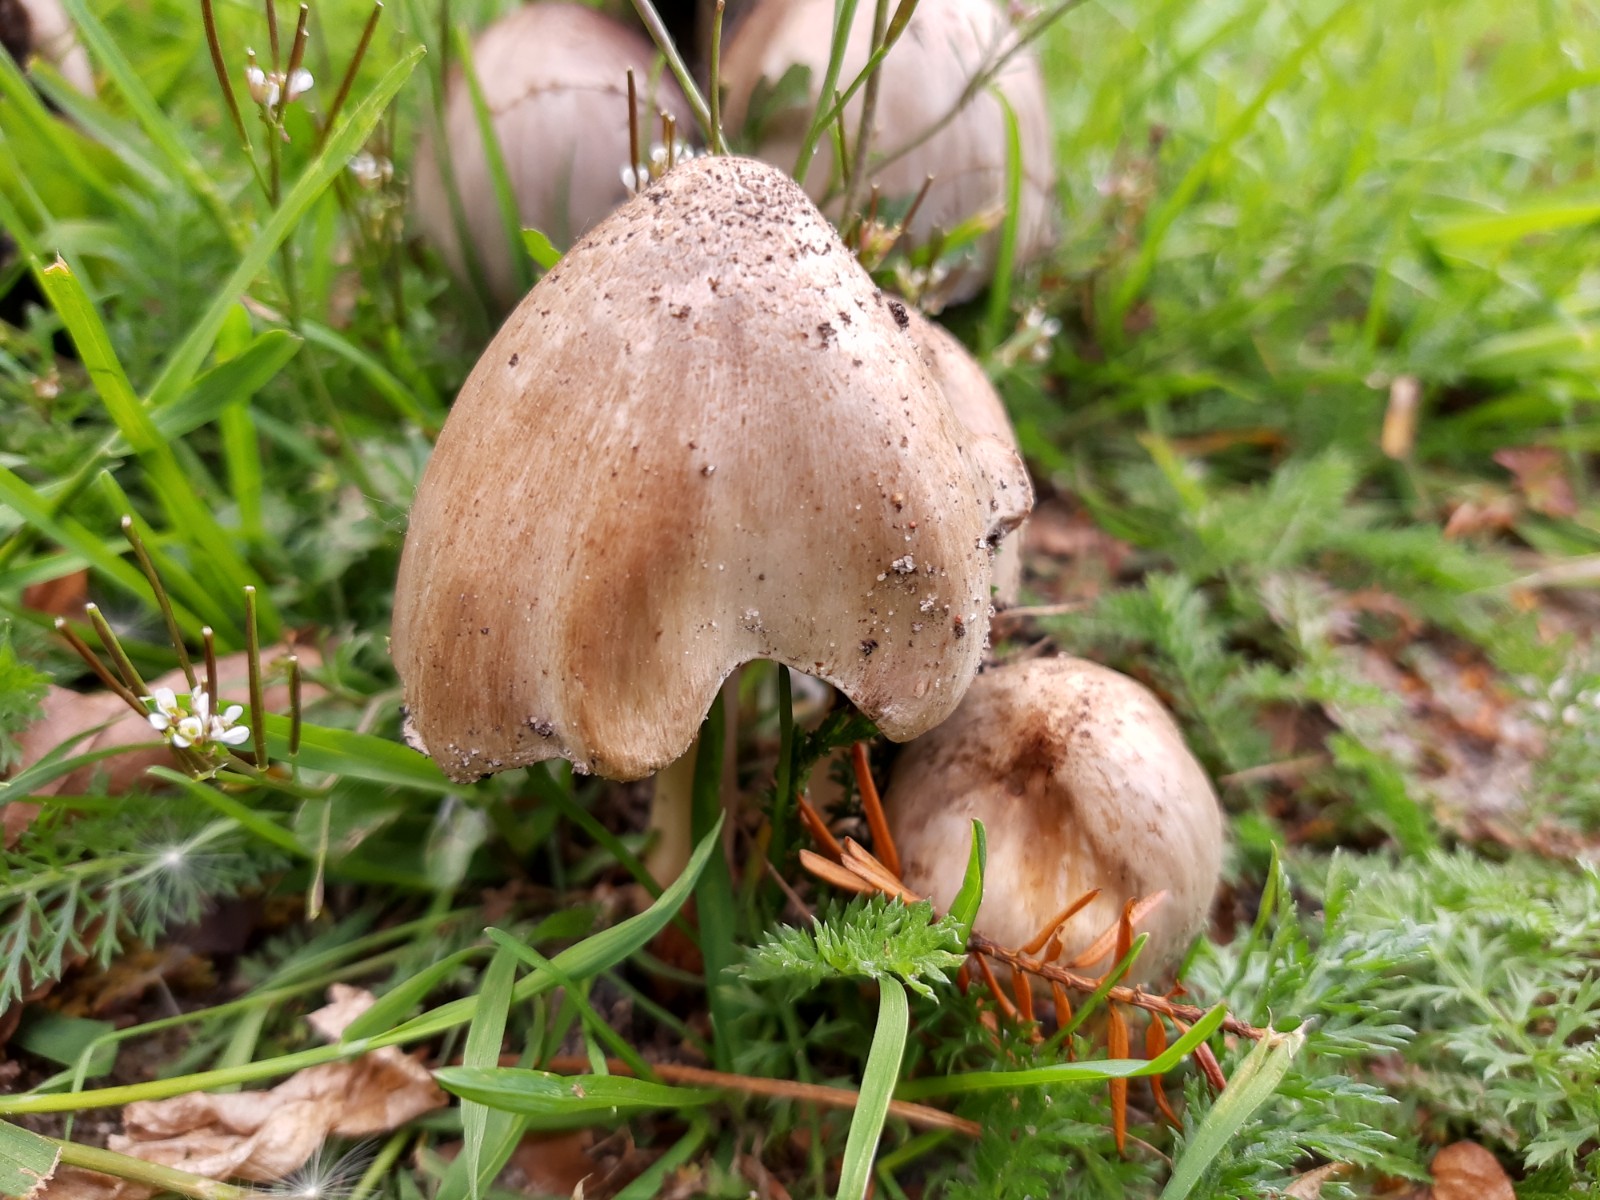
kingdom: Fungi
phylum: Basidiomycota
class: Agaricomycetes
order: Agaricales
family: Psathyrellaceae
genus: Coprinopsis
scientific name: Coprinopsis atramentaria
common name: almindelig blækhat
